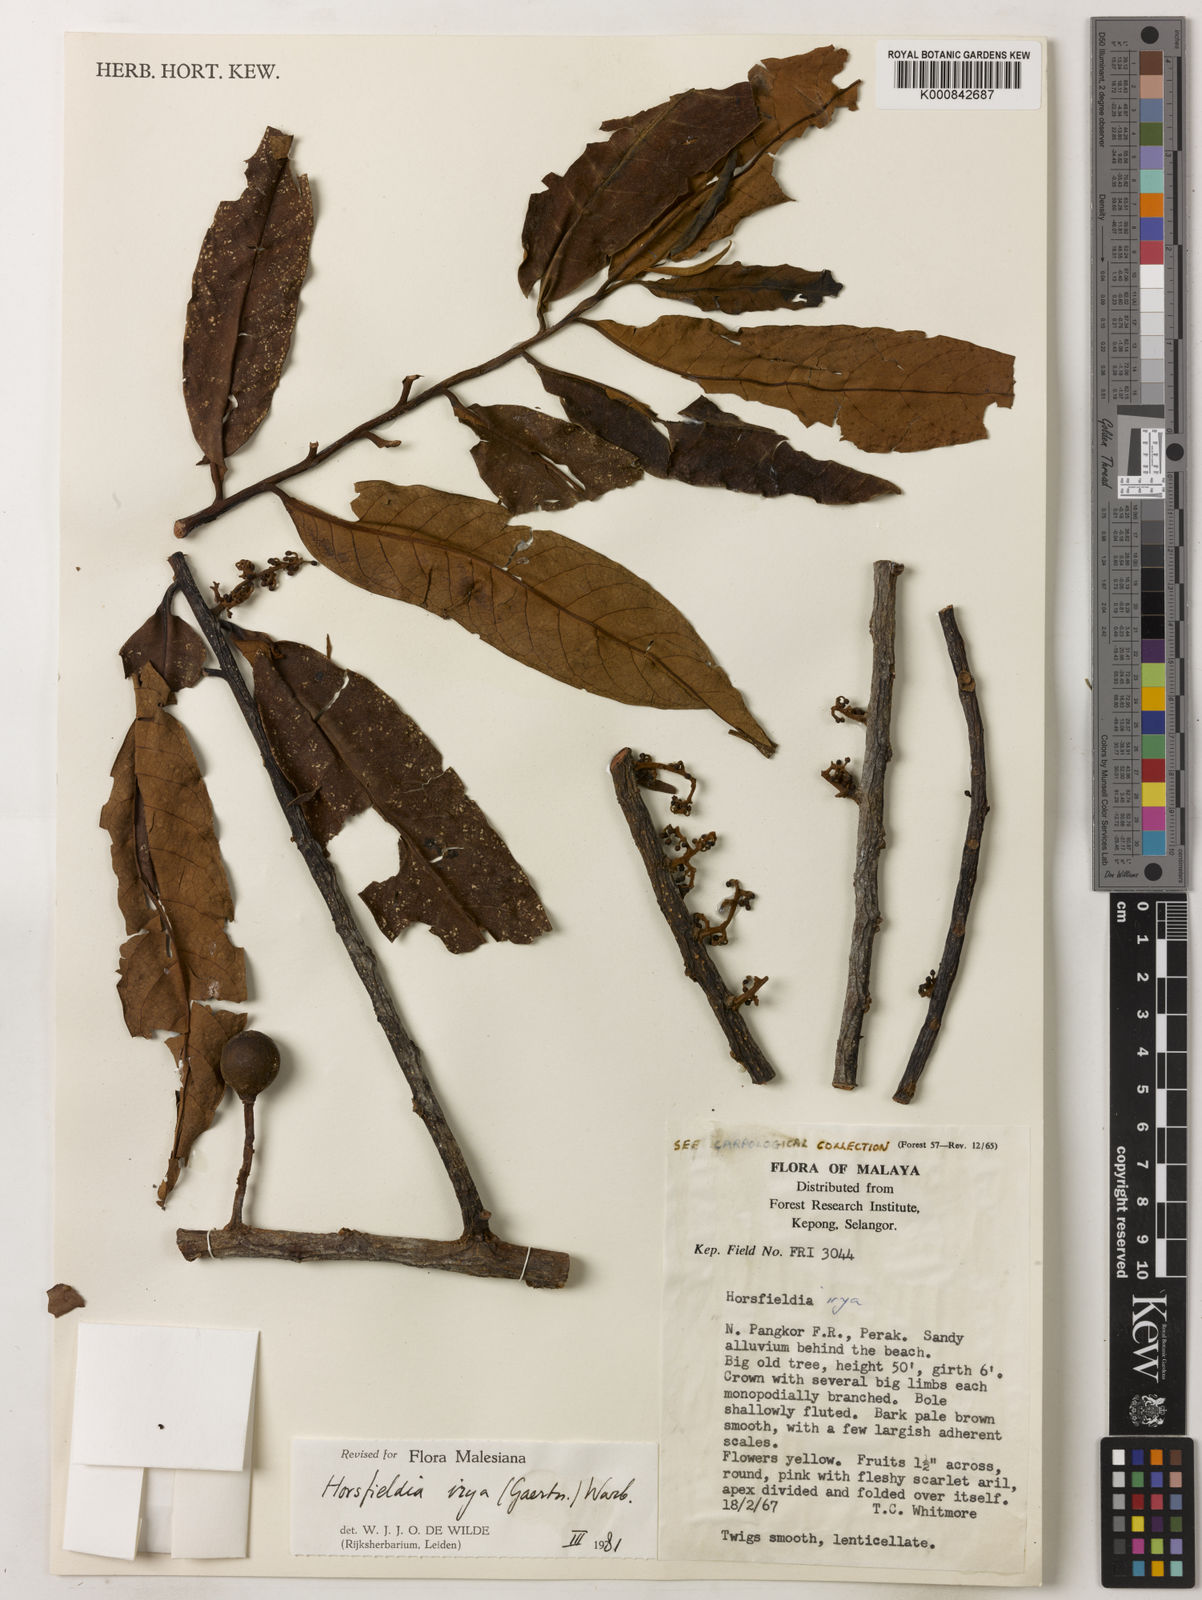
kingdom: Plantae
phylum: Tracheophyta
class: Magnoliopsida
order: Magnoliales
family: Myristicaceae
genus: Horsfieldia
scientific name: Horsfieldia irya
